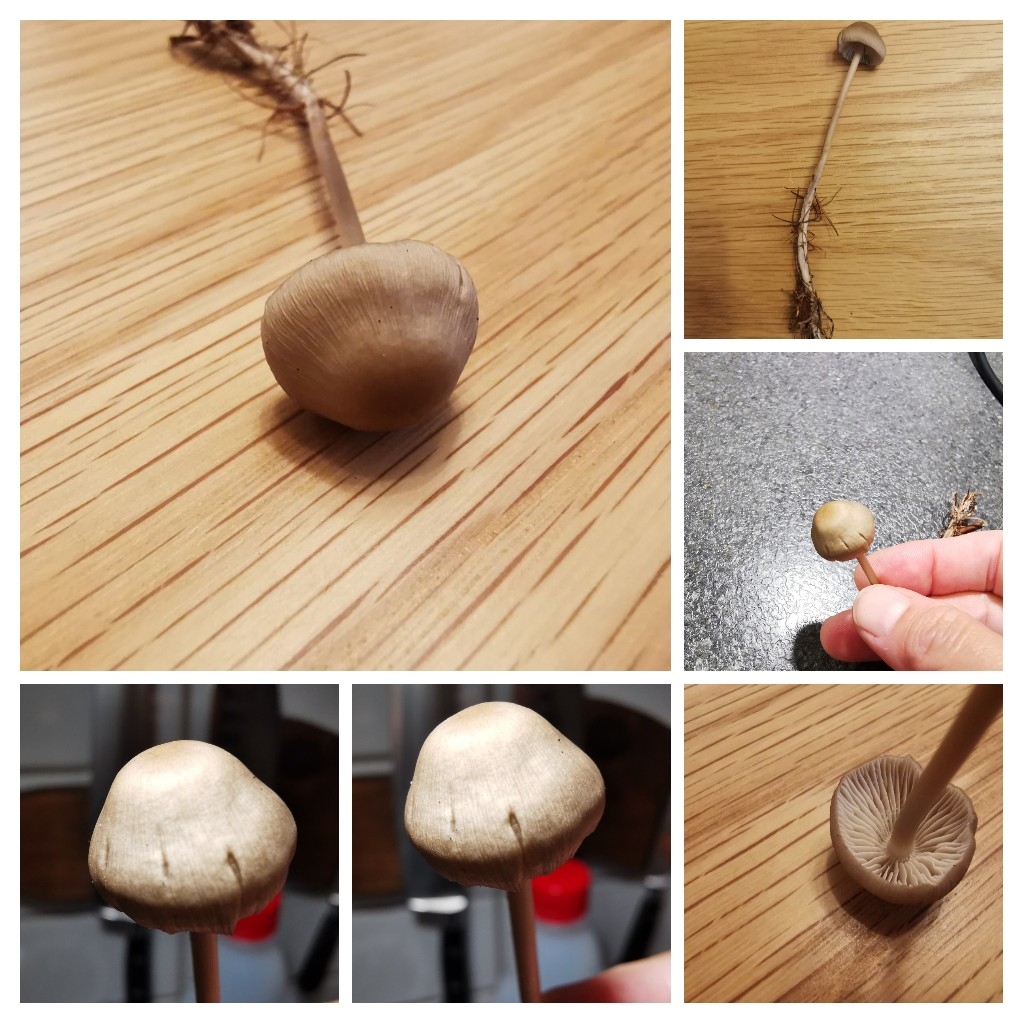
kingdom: Fungi
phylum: Basidiomycota
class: Agaricomycetes
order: Agaricales
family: Entolomataceae
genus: Entoloma
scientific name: Entoloma
